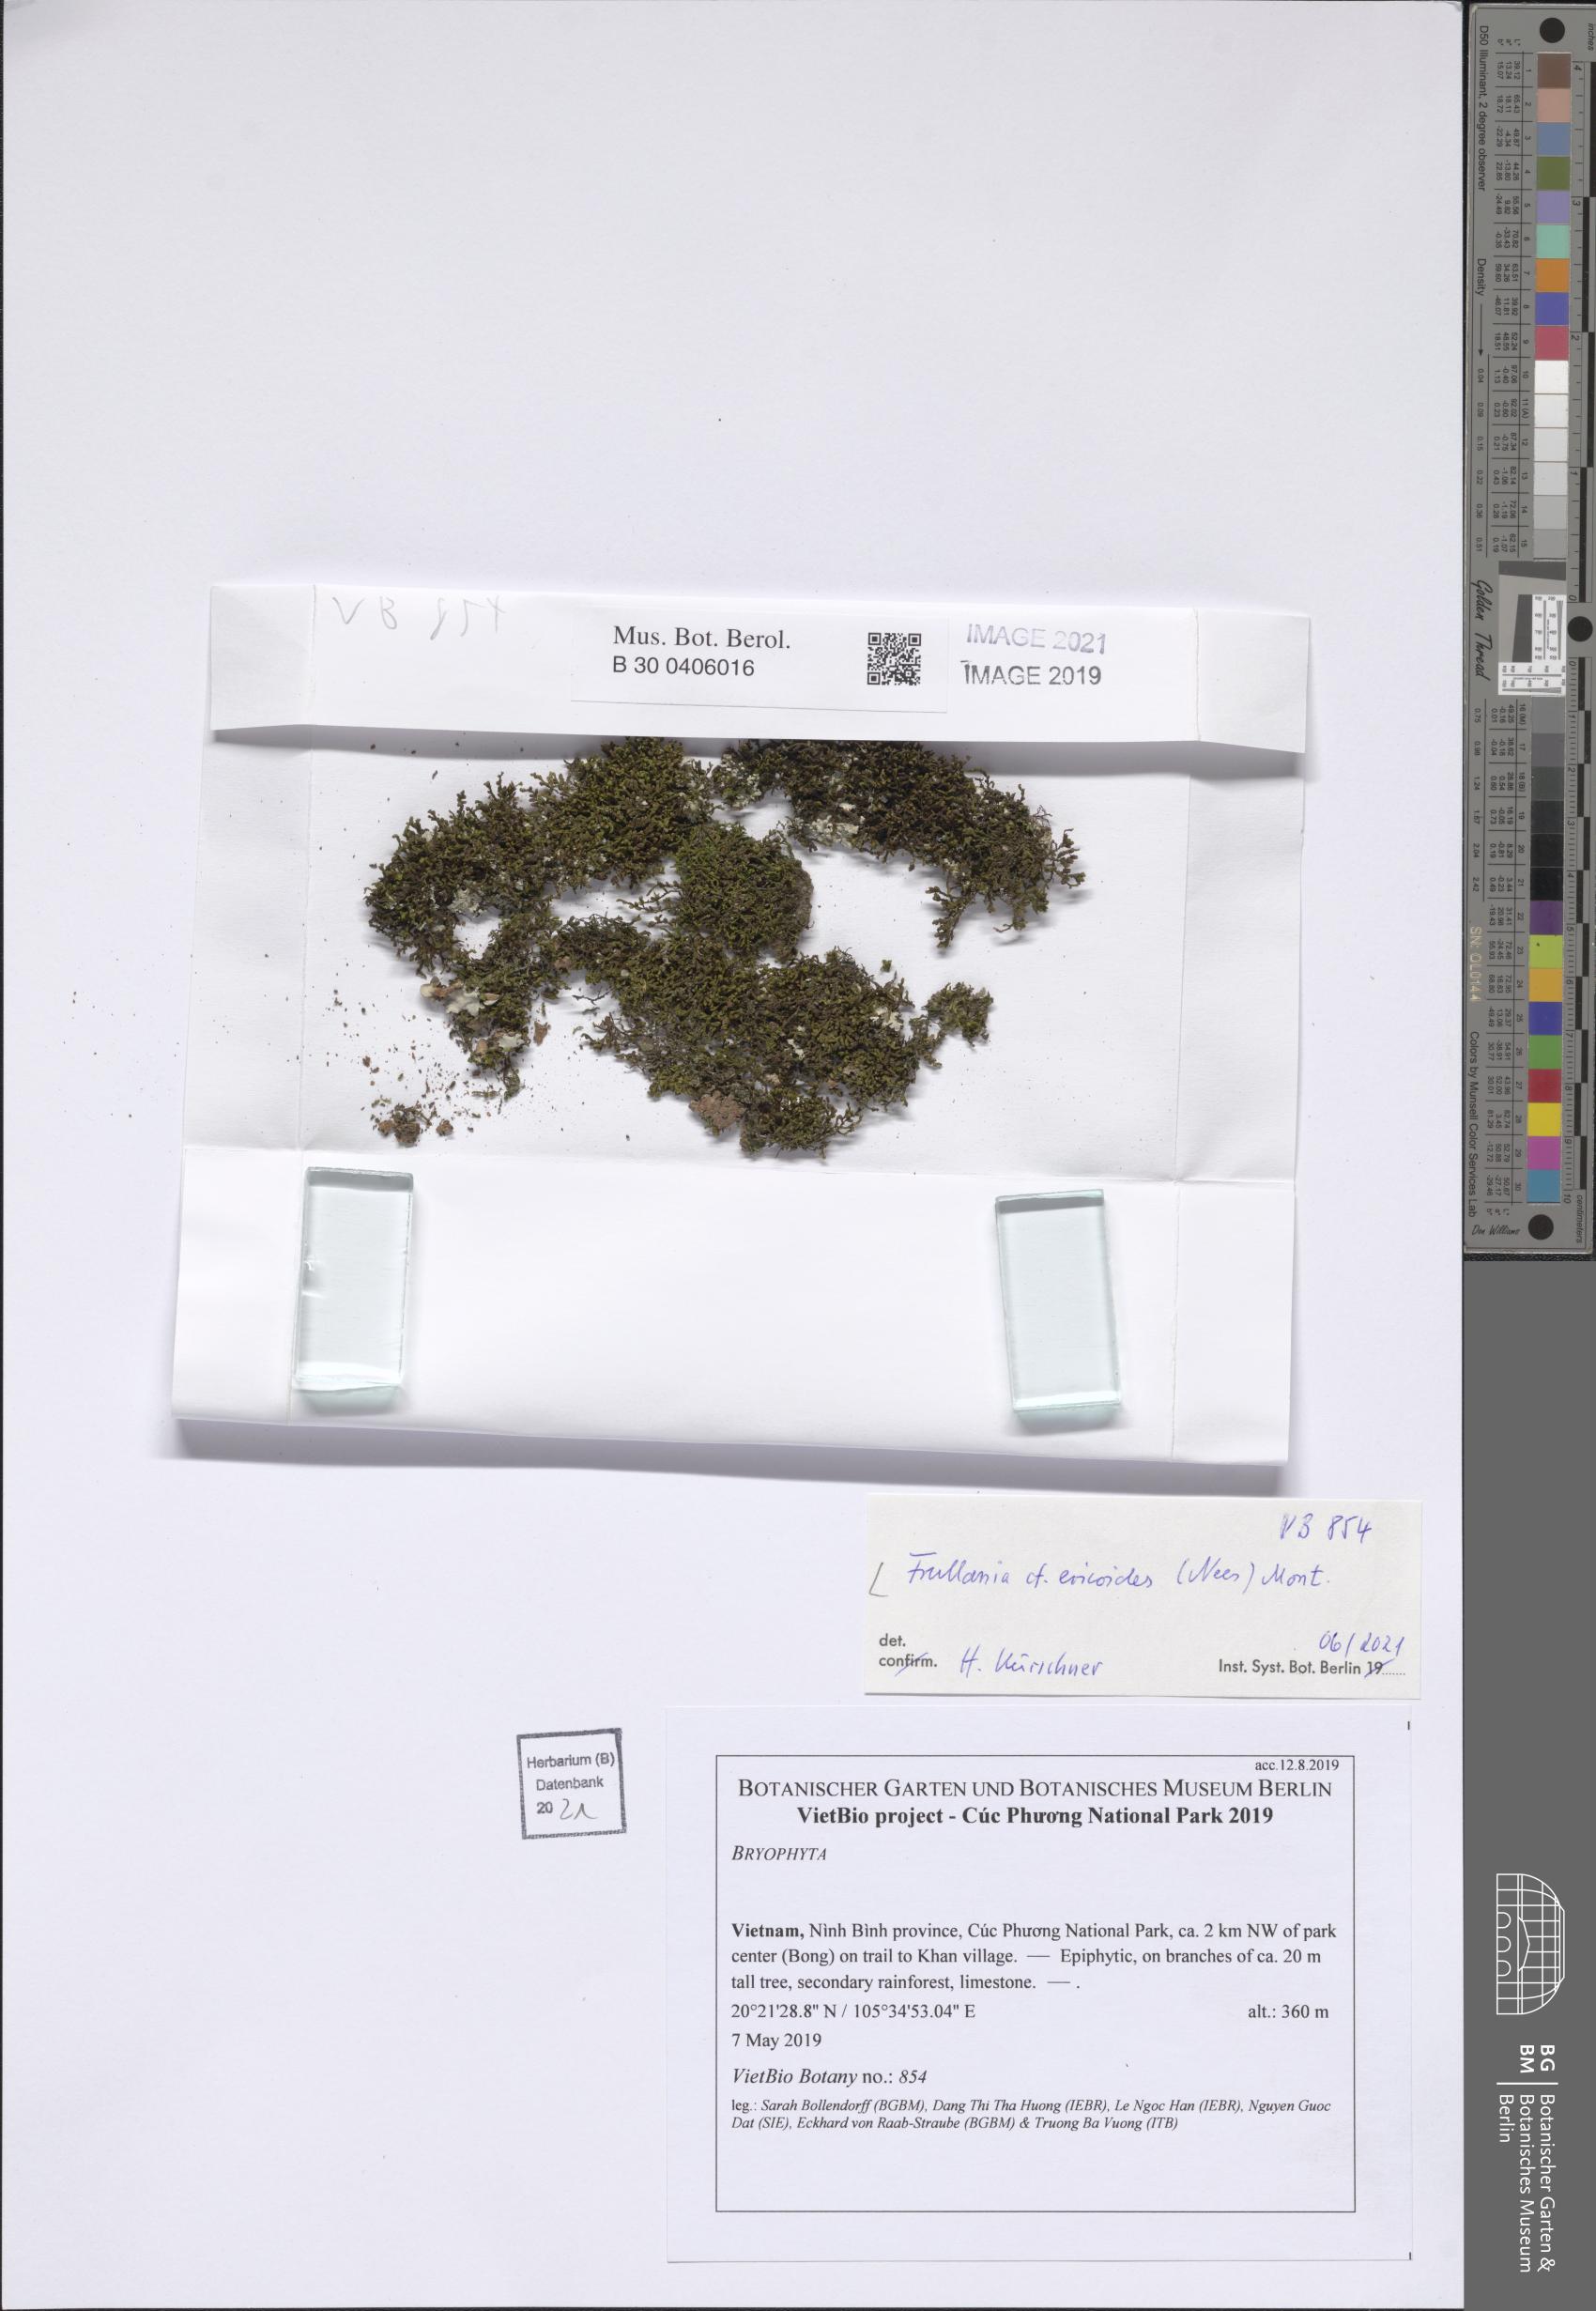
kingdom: Plantae
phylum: Marchantiophyta
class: Jungermanniopsida
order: Porellales
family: Frullaniaceae
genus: Frullania
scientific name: Frullania ericoides
